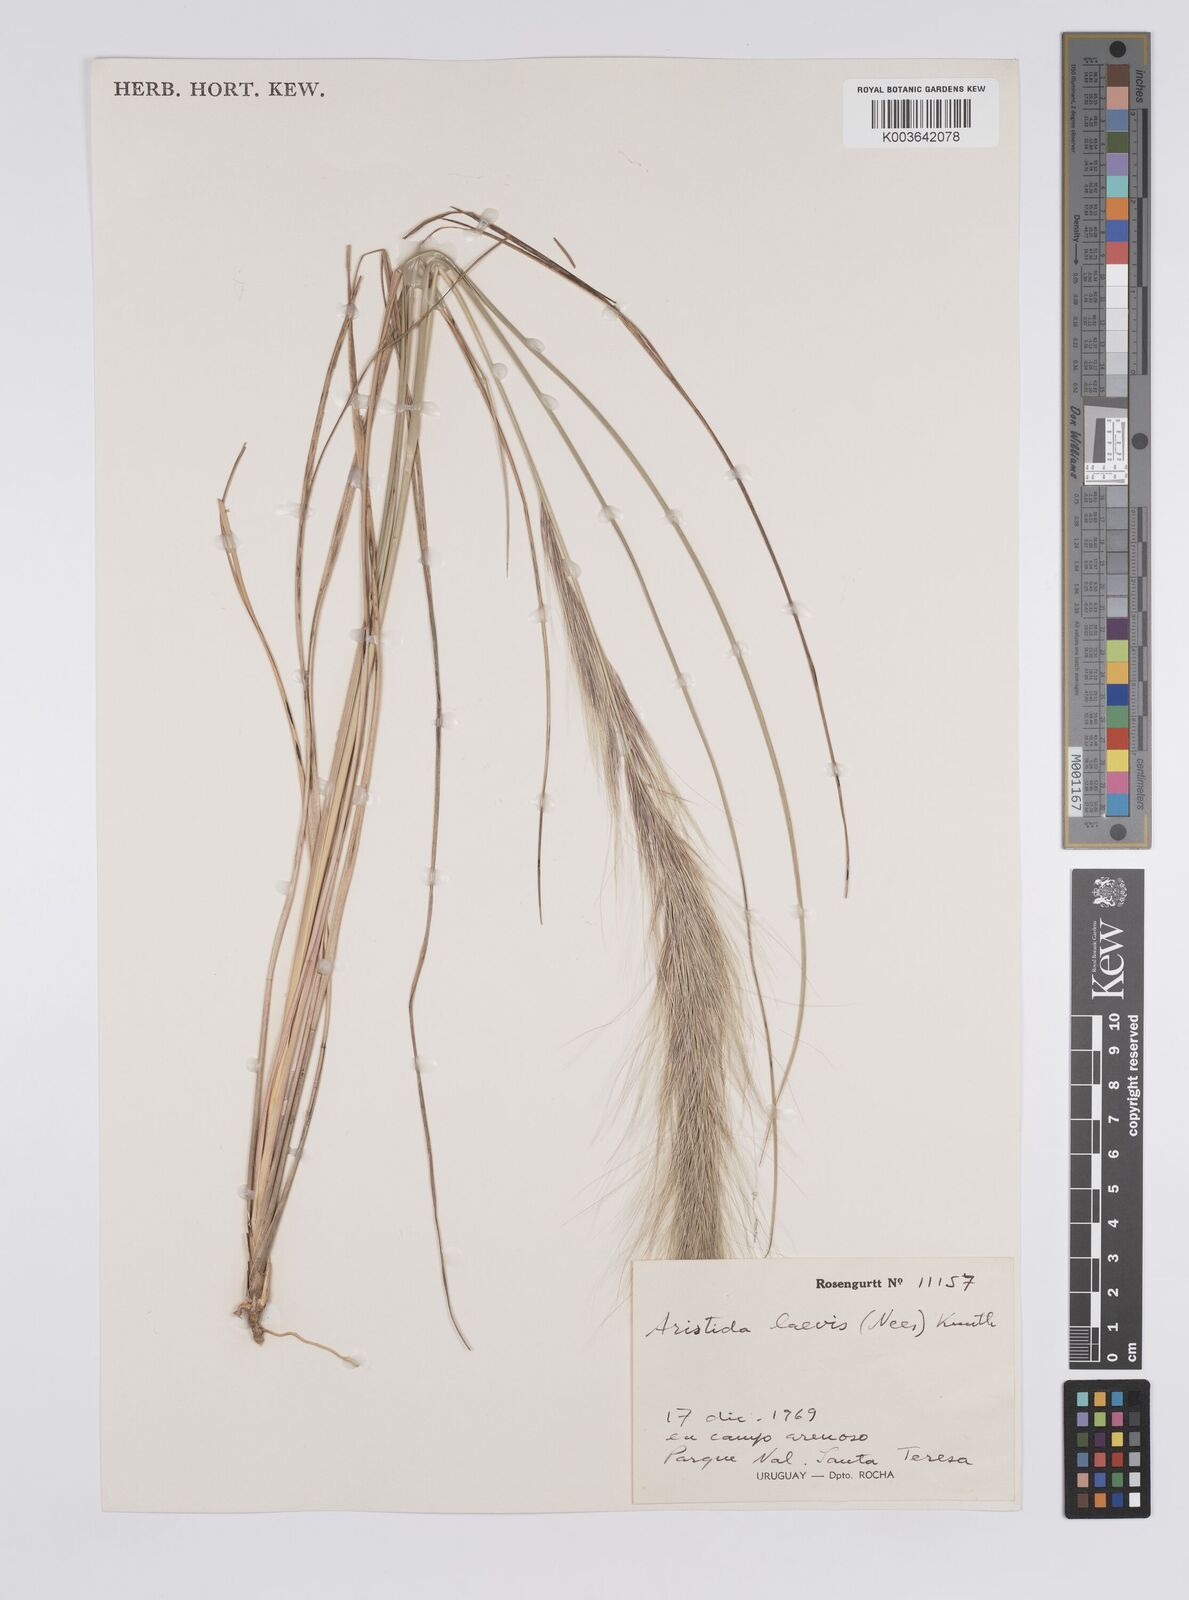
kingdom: Plantae
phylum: Tracheophyta
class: Liliopsida
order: Poales
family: Poaceae
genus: Aristida
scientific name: Aristida laevis
